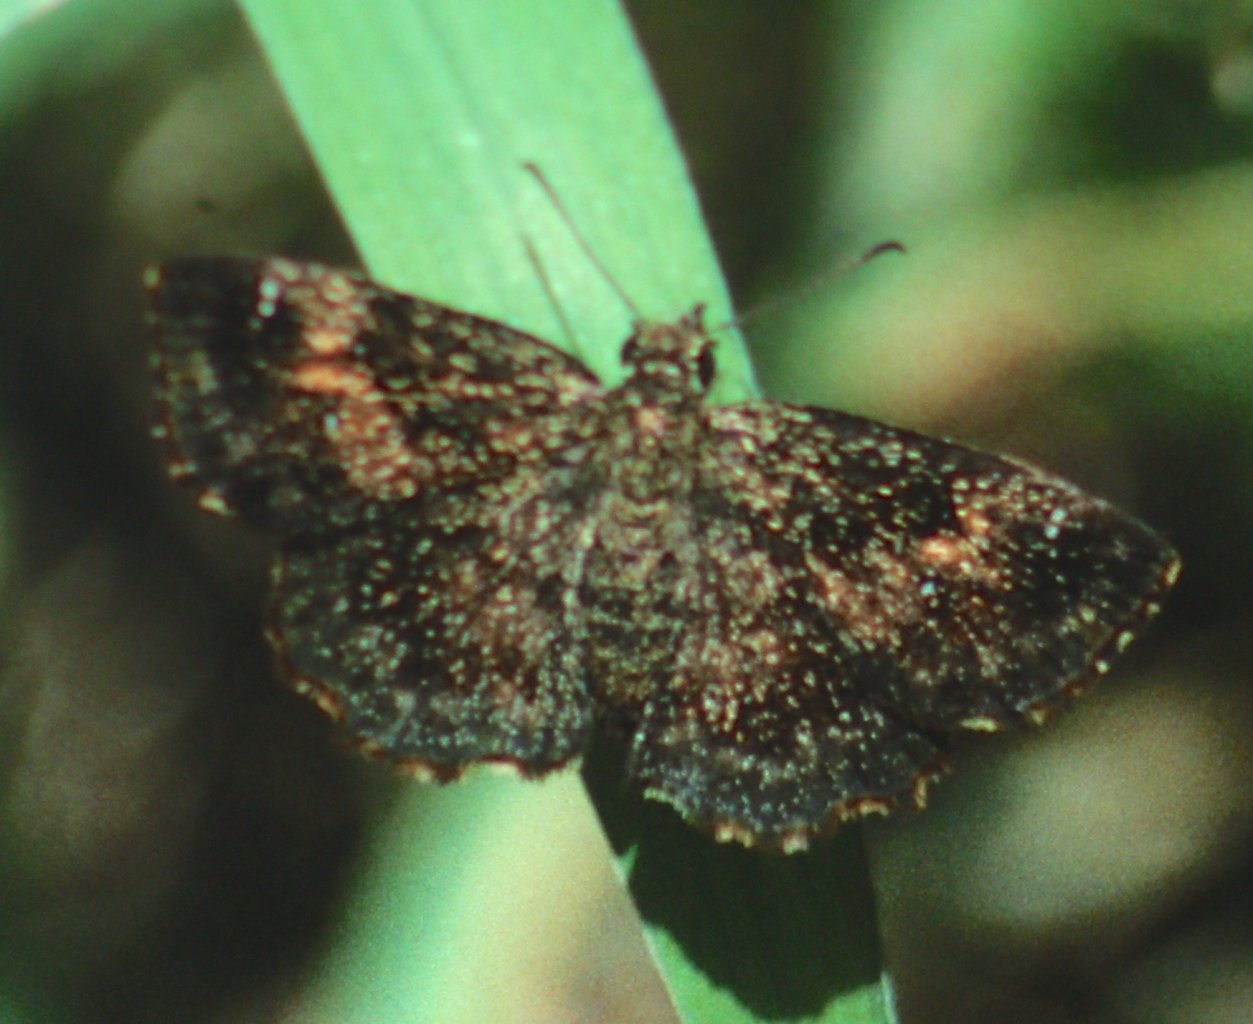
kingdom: Animalia
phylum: Arthropoda
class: Insecta
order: Lepidoptera
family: Hesperiidae
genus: Staphylus
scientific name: Staphylus mazans
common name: Hayhurst's Scallopwing
